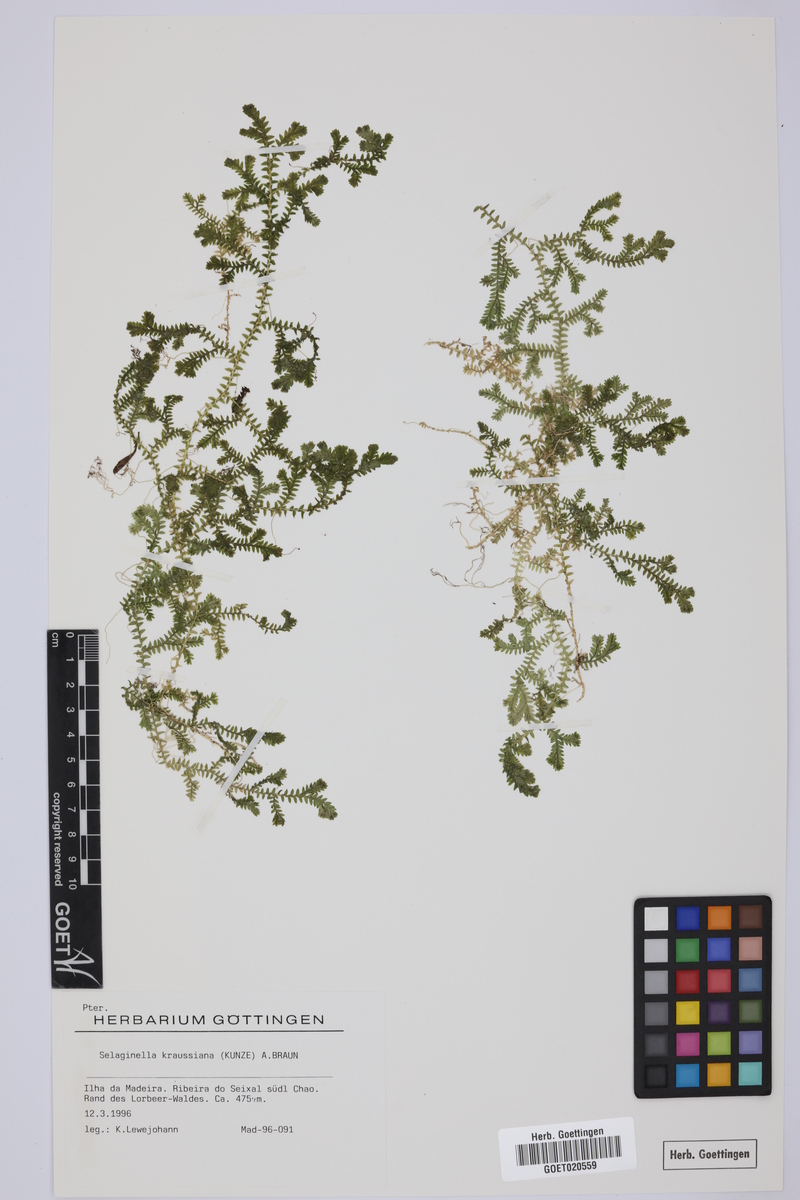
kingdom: Plantae
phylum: Tracheophyta
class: Lycopodiopsida
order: Selaginellales
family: Selaginellaceae
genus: Selaginella
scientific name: Selaginella kraussiana
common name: Krauss' spikemoss
